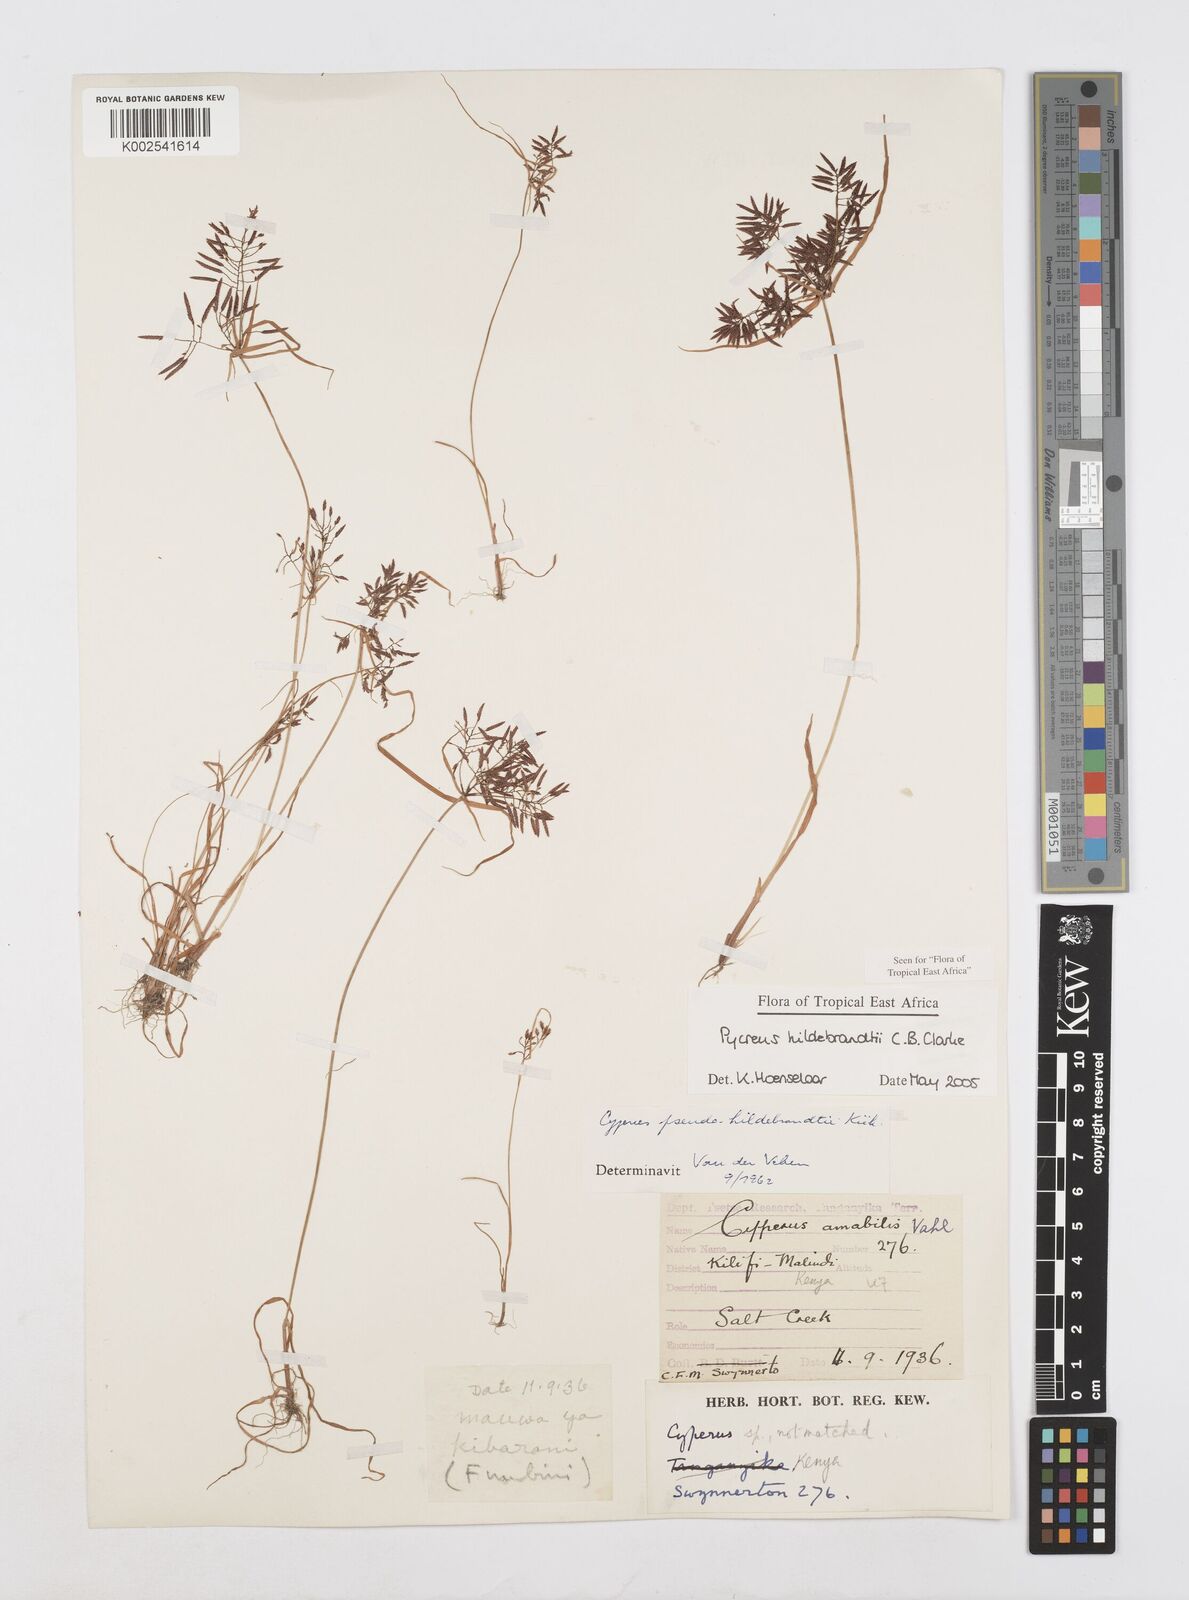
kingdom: Plantae
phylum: Tracheophyta
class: Liliopsida
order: Poales
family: Cyperaceae
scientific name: Cyperaceae
